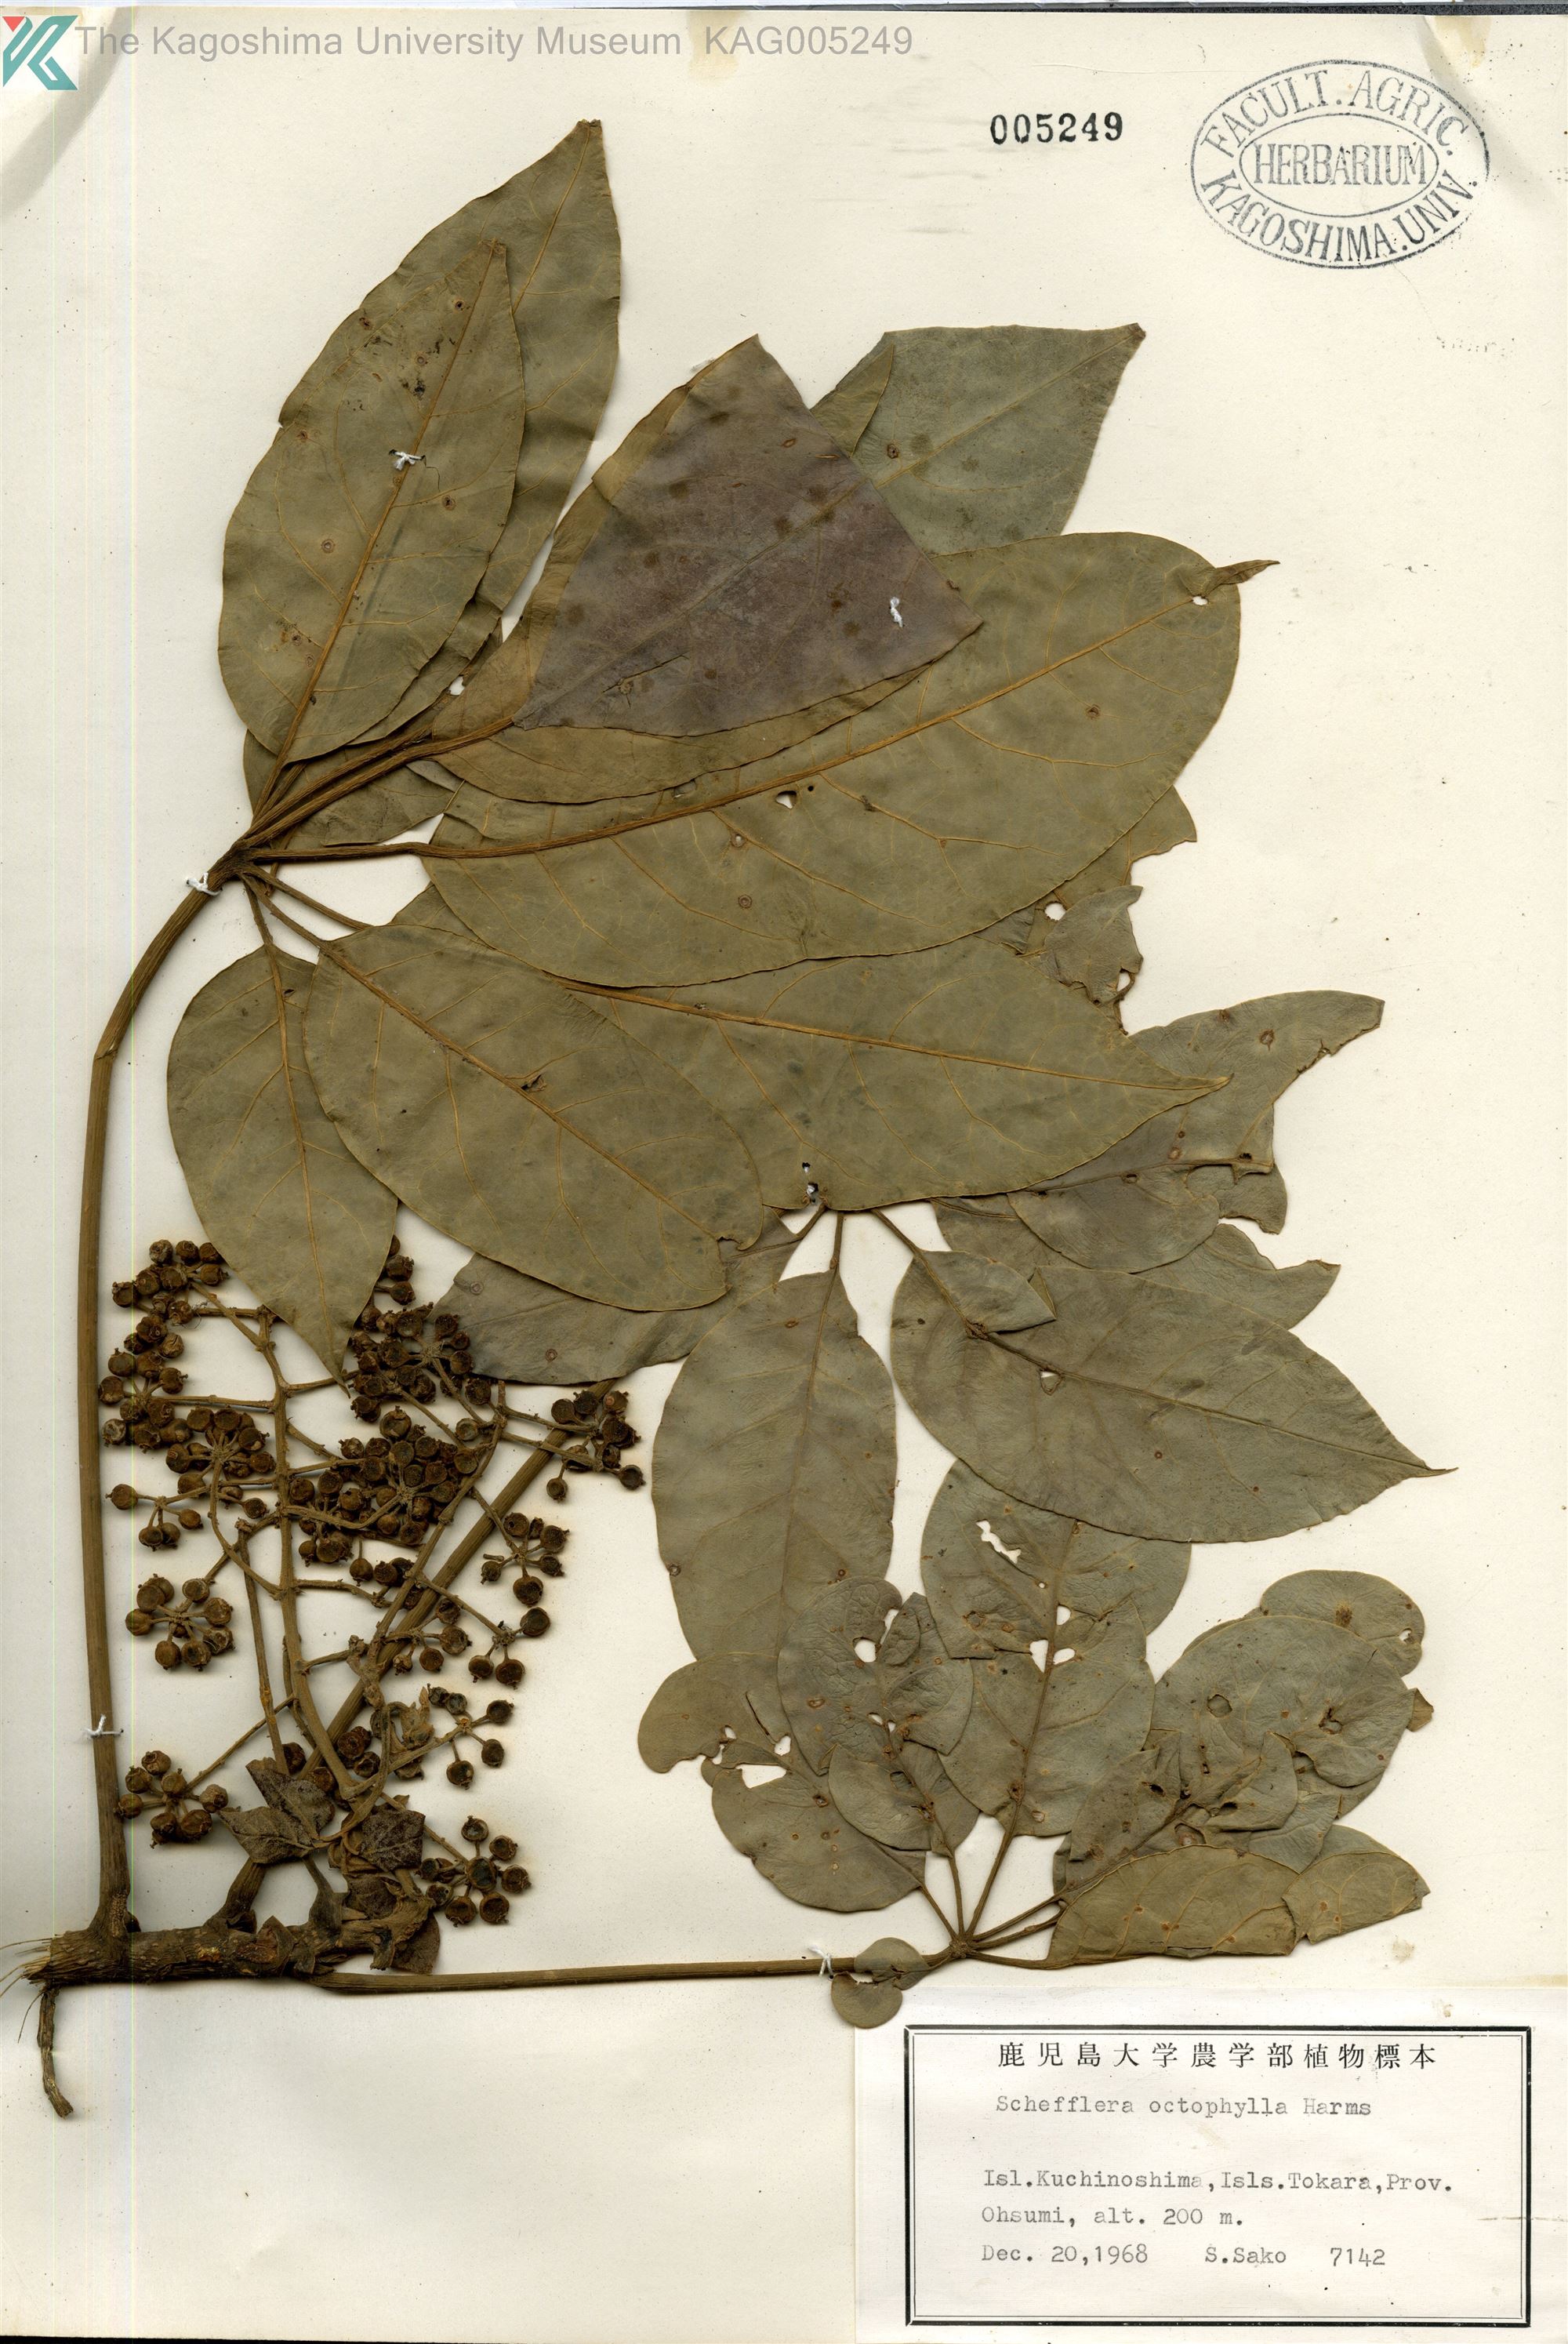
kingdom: Plantae
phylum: Tracheophyta
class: Magnoliopsida
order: Apiales
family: Araliaceae
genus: Heptapleurum
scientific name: Heptapleurum heptaphyllum
